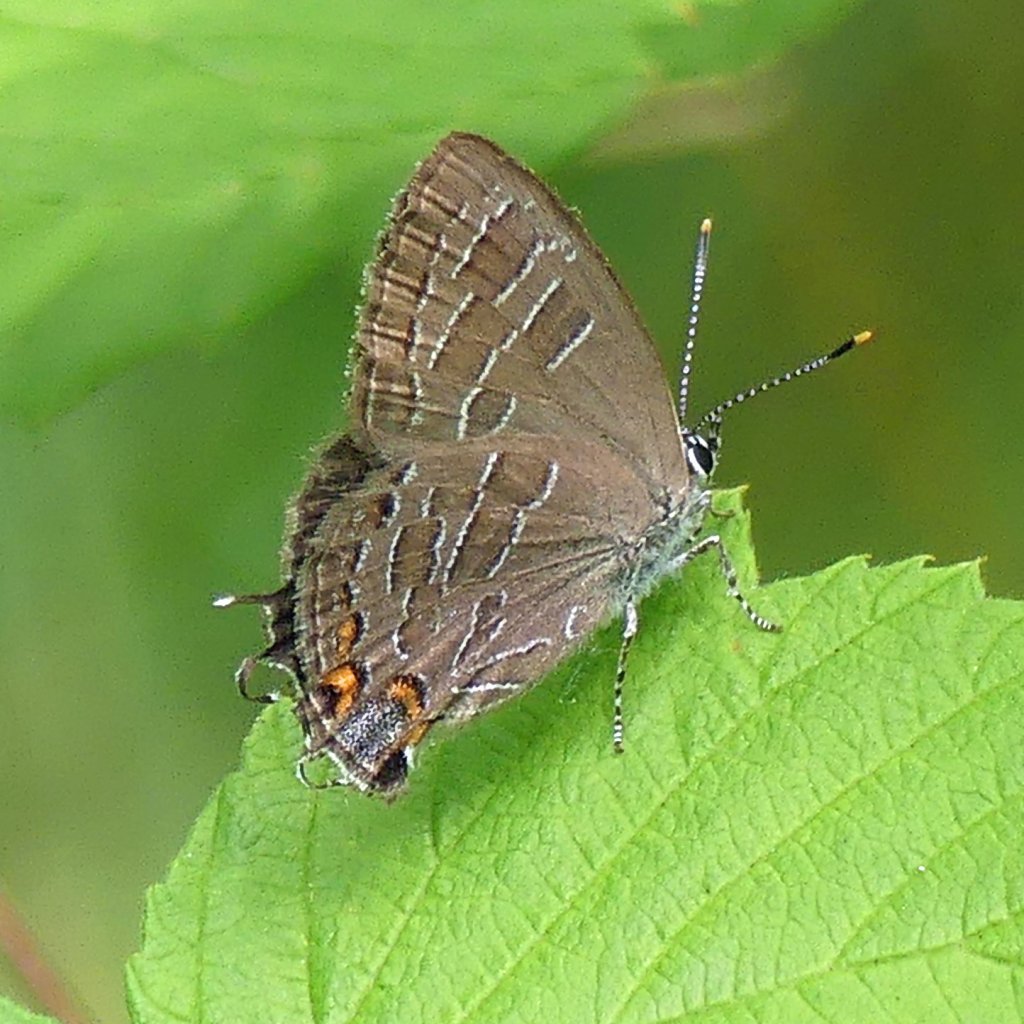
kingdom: Animalia
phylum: Arthropoda
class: Insecta
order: Lepidoptera
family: Lycaenidae
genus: Satyrium
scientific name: Satyrium liparops
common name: Striped Hairstreak
